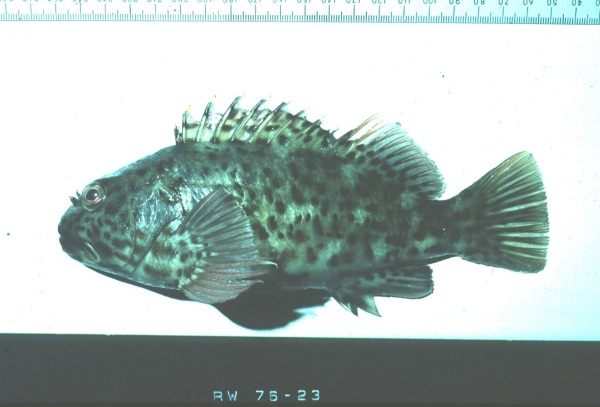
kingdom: Animalia
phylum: Chordata
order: Perciformes
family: Cirrhitidae
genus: Cirrhitus
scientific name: Cirrhitus pinnulatus
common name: Stocky hawkfish
